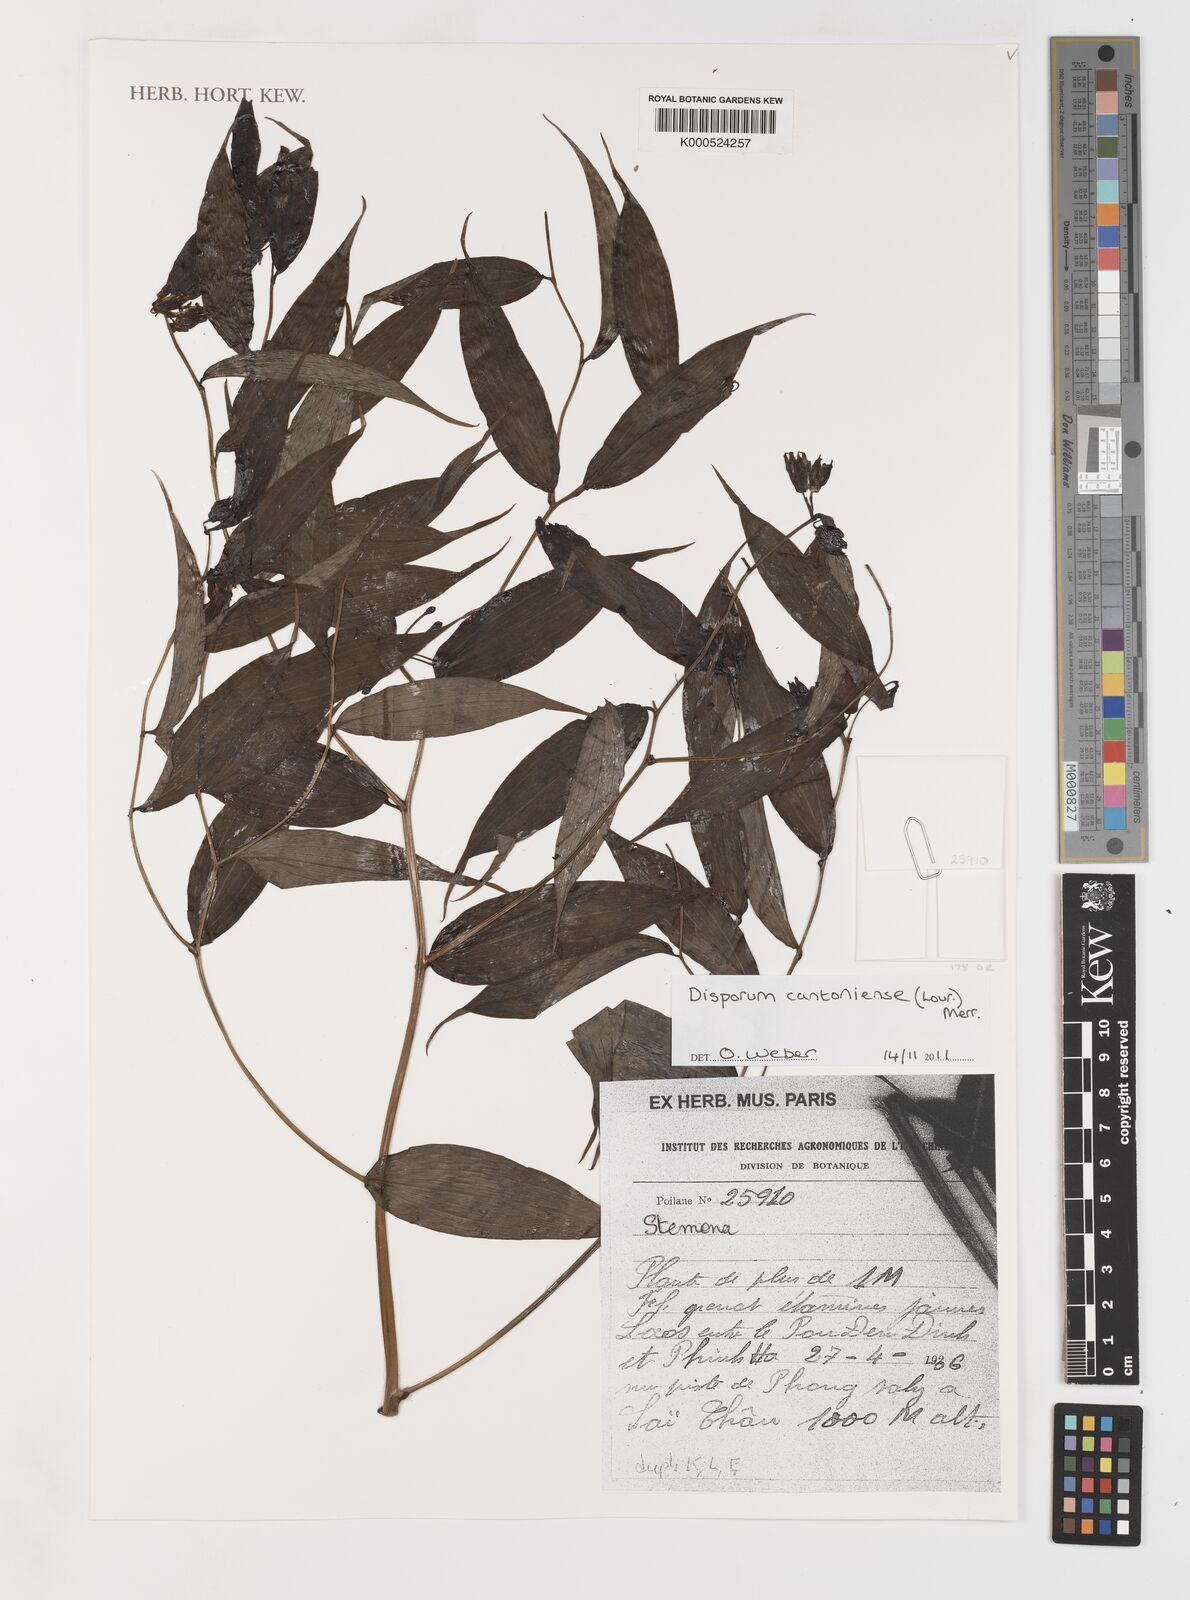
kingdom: Plantae
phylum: Tracheophyta
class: Liliopsida
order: Liliales
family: Colchicaceae
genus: Disporum
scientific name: Disporum cantoniense
